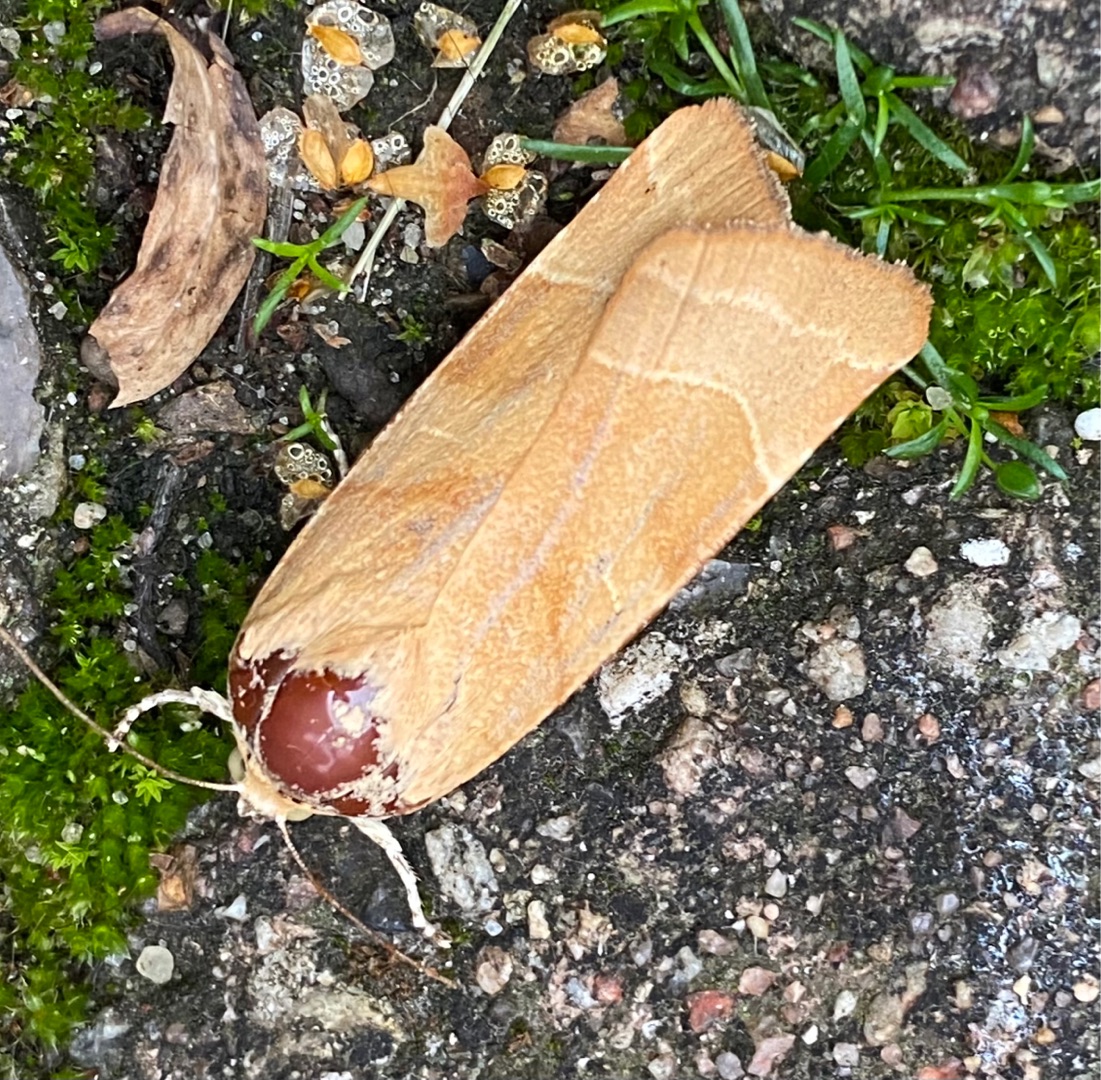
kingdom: Animalia
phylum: Arthropoda
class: Insecta
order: Lepidoptera
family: Noctuidae
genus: Noctua
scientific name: Noctua fimbriata
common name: Gul båndugle
